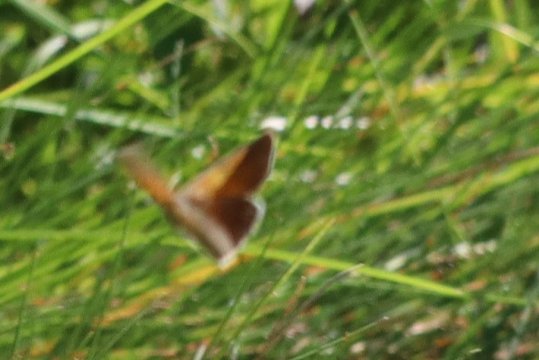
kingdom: Animalia
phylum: Arthropoda
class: Insecta
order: Lepidoptera
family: Nymphalidae
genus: Coenonympha
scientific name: Coenonympha california
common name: California Ringlet
